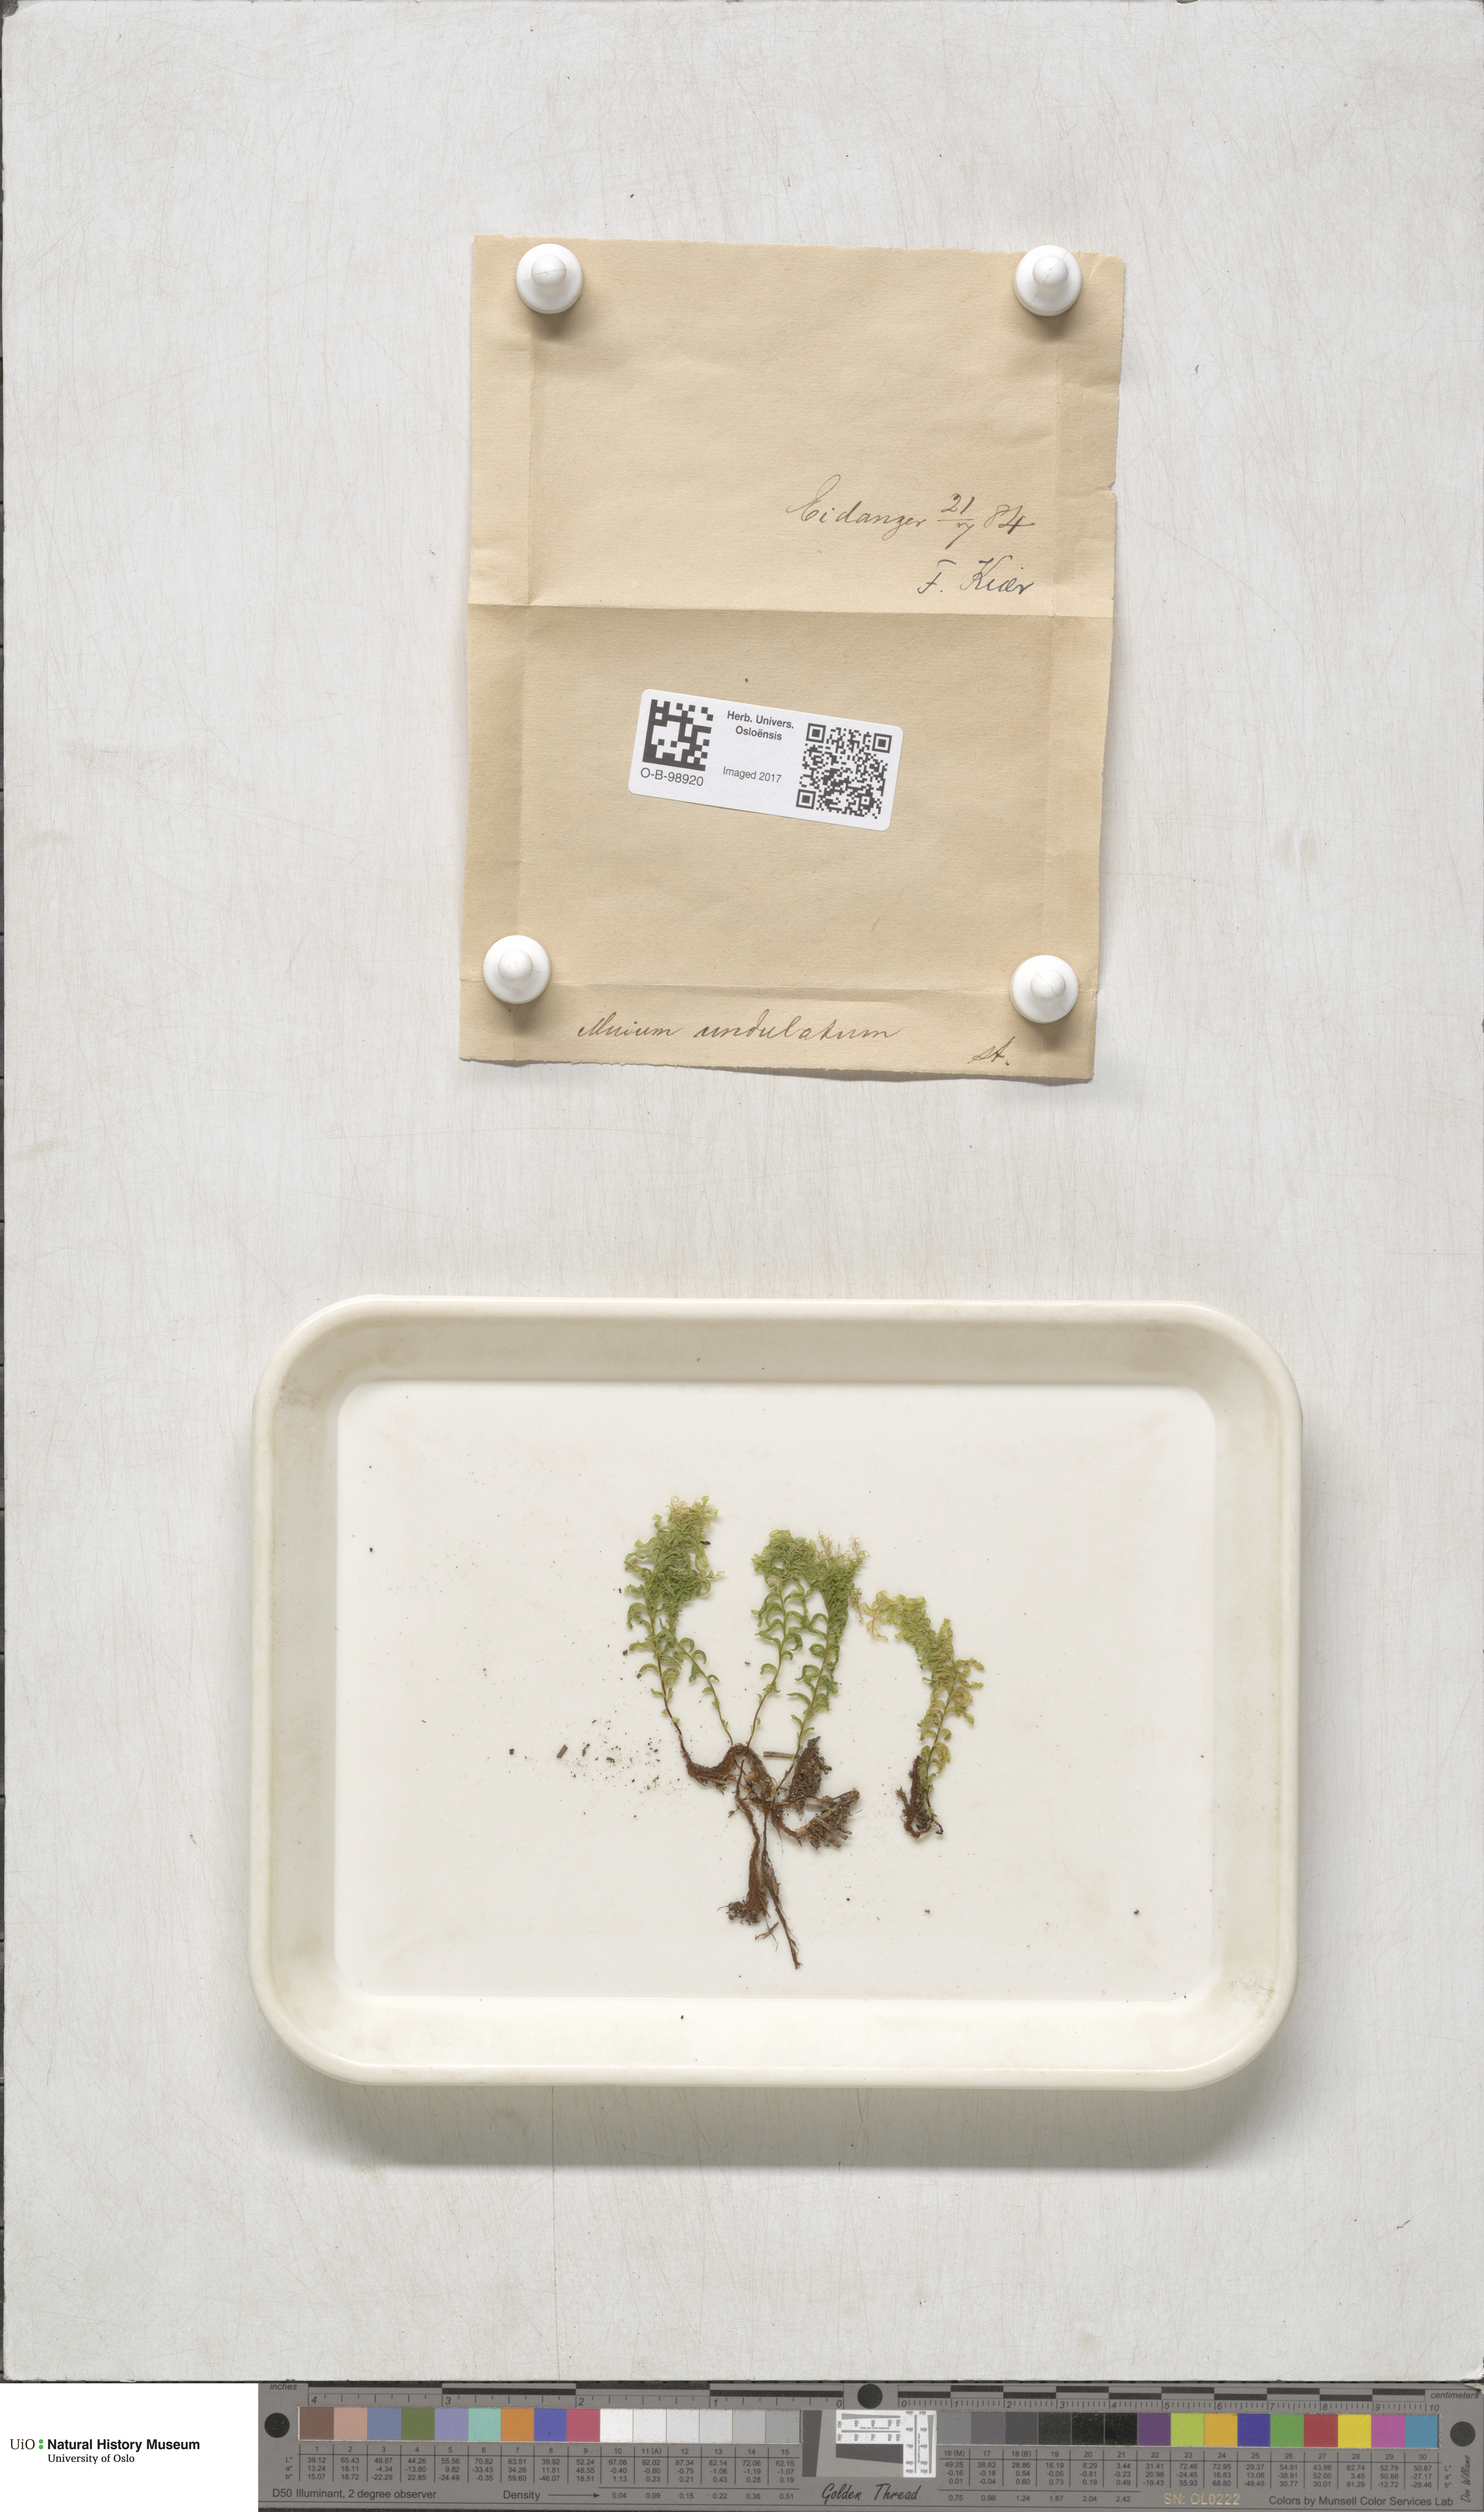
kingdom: Plantae
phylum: Bryophyta
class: Bryopsida
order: Bryales
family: Mniaceae
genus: Plagiomnium
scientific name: Plagiomnium undulatum
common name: Hart's-tongue thyme-moss
